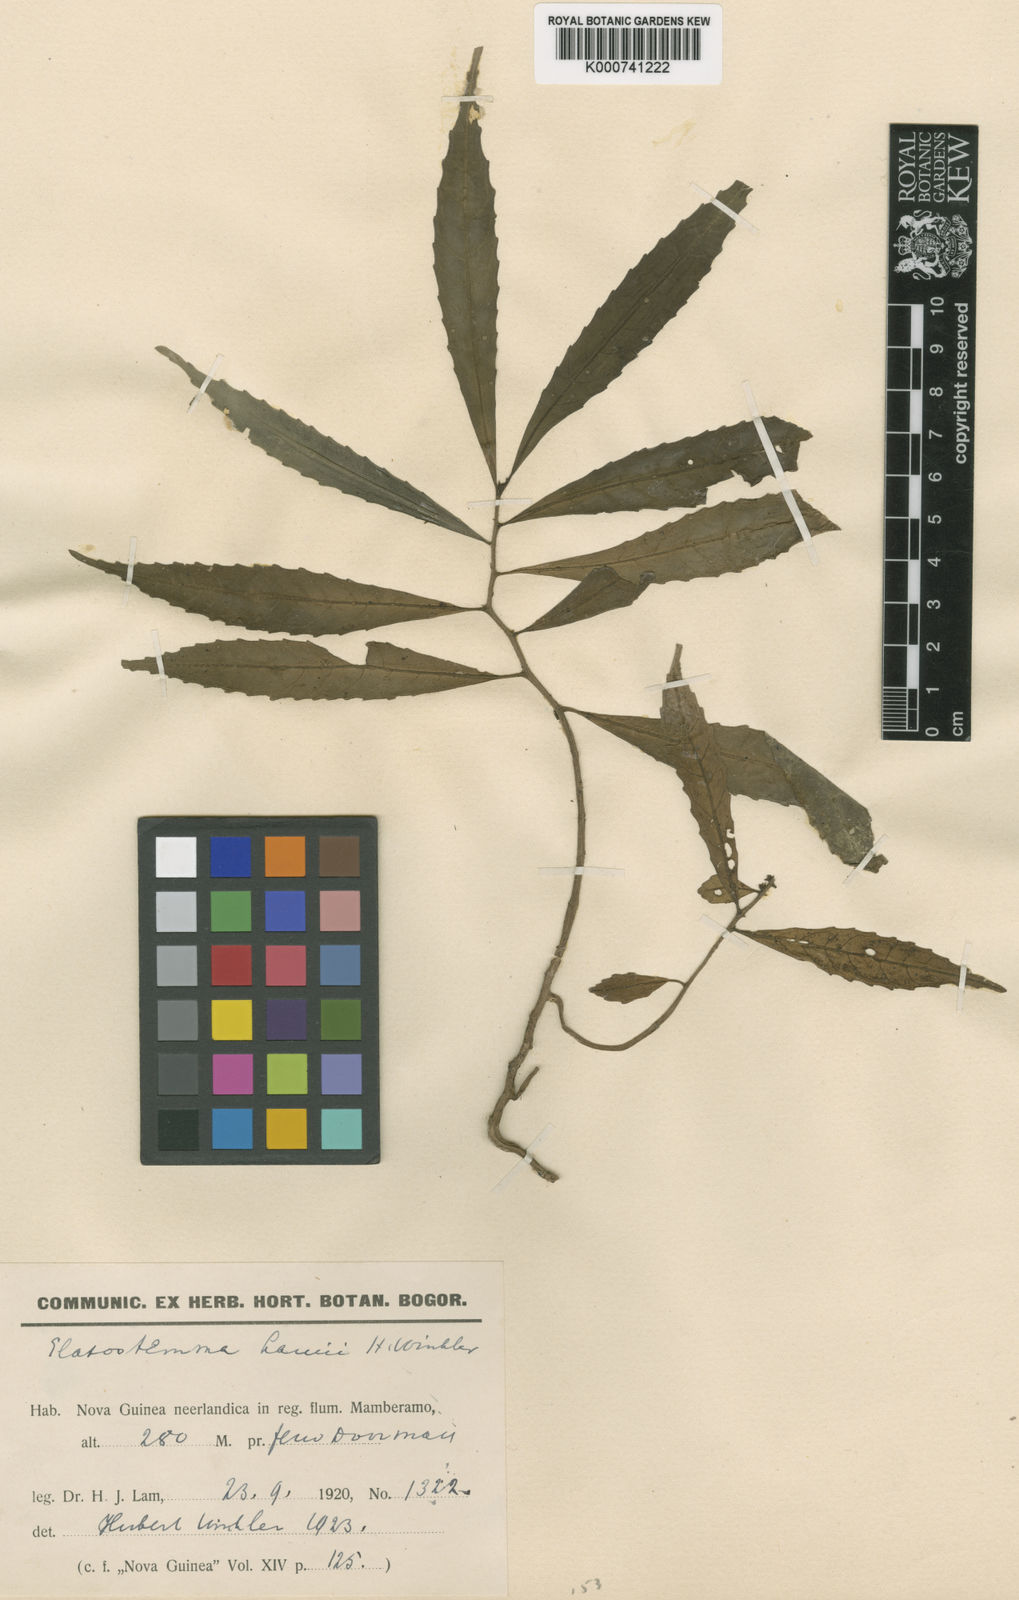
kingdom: Plantae
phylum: Tracheophyta
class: Magnoliopsida
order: Rosales
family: Urticaceae
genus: Elatostema
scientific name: Elatostema cauliflorum
